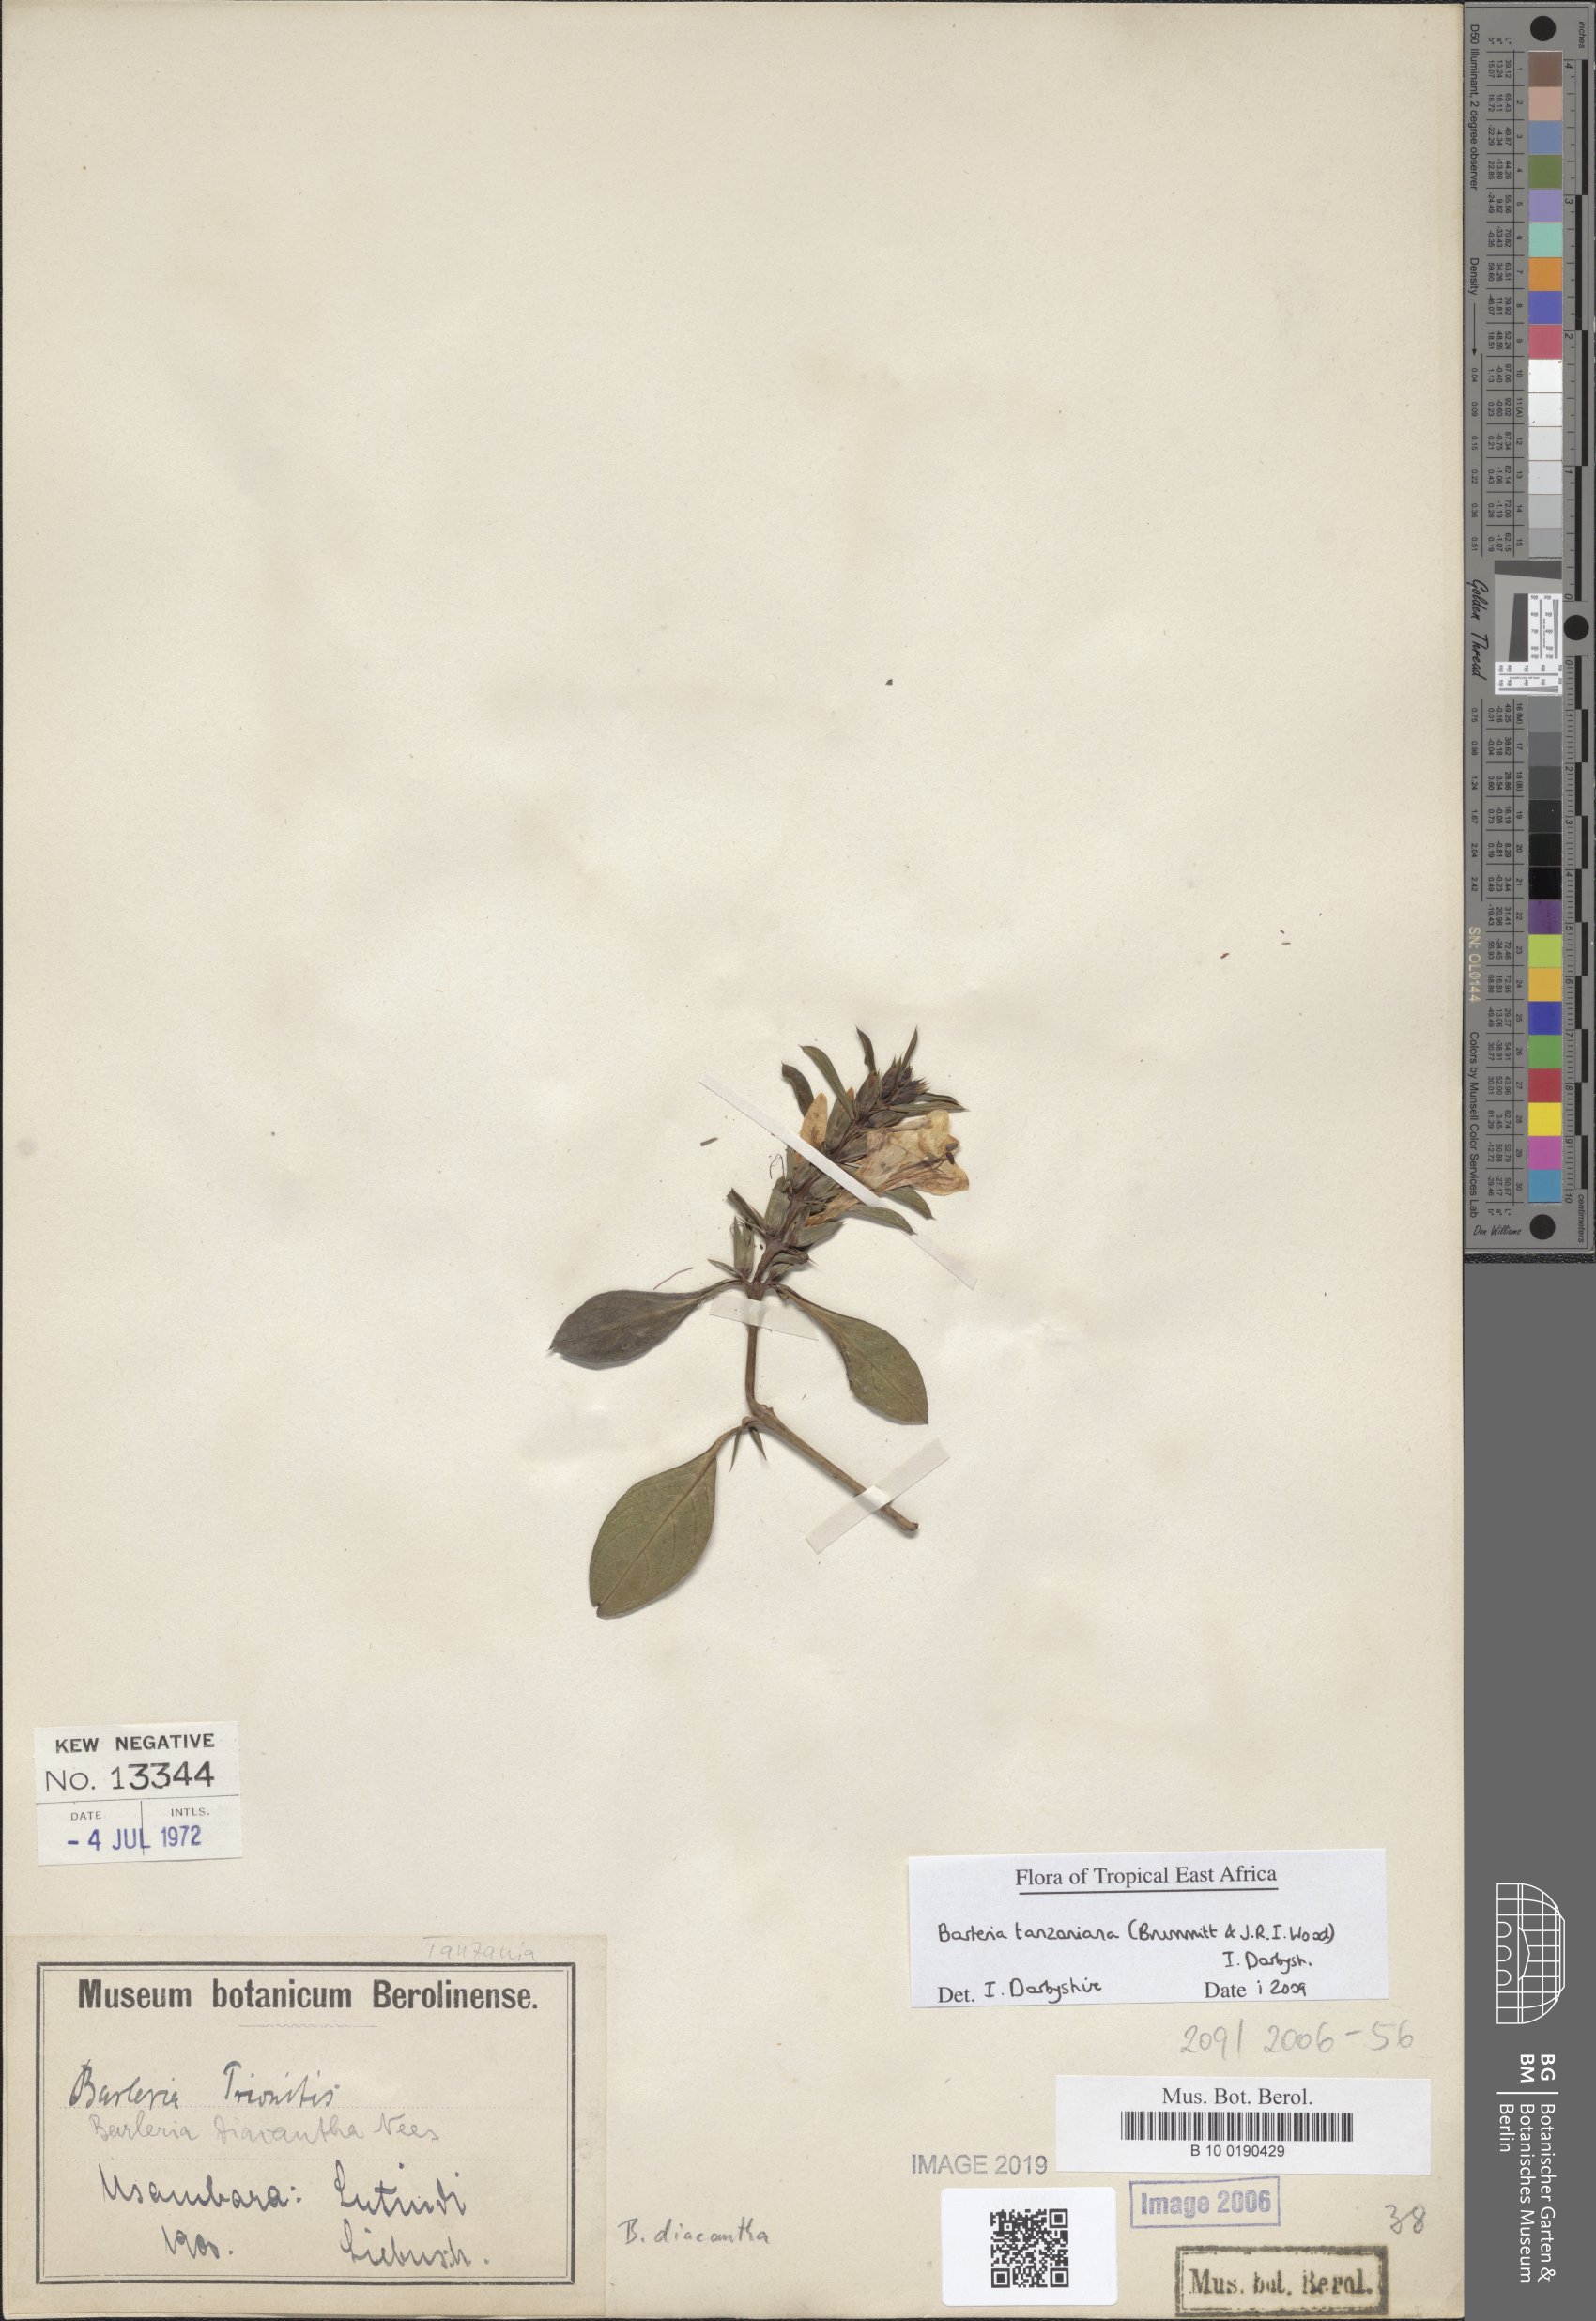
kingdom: Plantae
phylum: Tracheophyta
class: Magnoliopsida
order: Lamiales
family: Acanthaceae
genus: Barleria
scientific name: Barleria trispinosa
